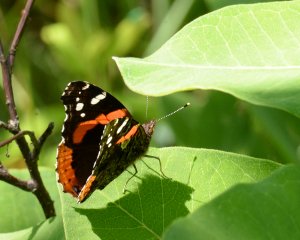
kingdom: Animalia
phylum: Arthropoda
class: Insecta
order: Lepidoptera
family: Nymphalidae
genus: Vanessa
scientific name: Vanessa atalanta
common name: Red Admiral
